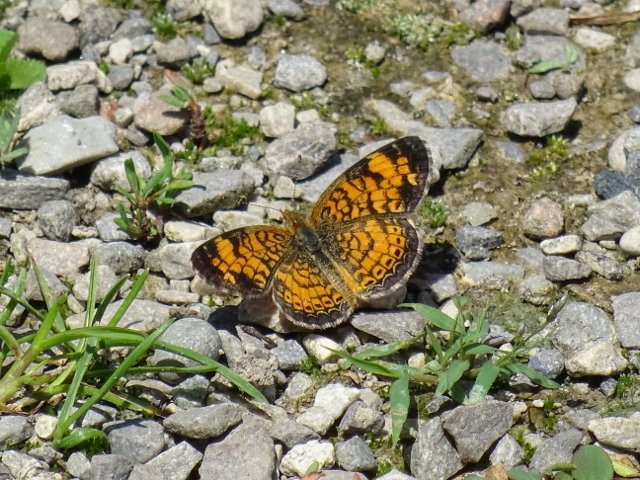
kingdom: Animalia
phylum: Arthropoda
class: Insecta
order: Lepidoptera
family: Nymphalidae
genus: Phyciodes
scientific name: Phyciodes tharos
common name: Northern Crescent
